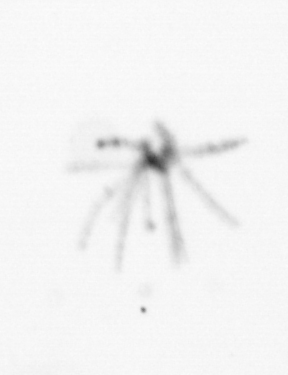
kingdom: Animalia
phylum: Cnidaria
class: Hydrozoa
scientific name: Hydrozoa
